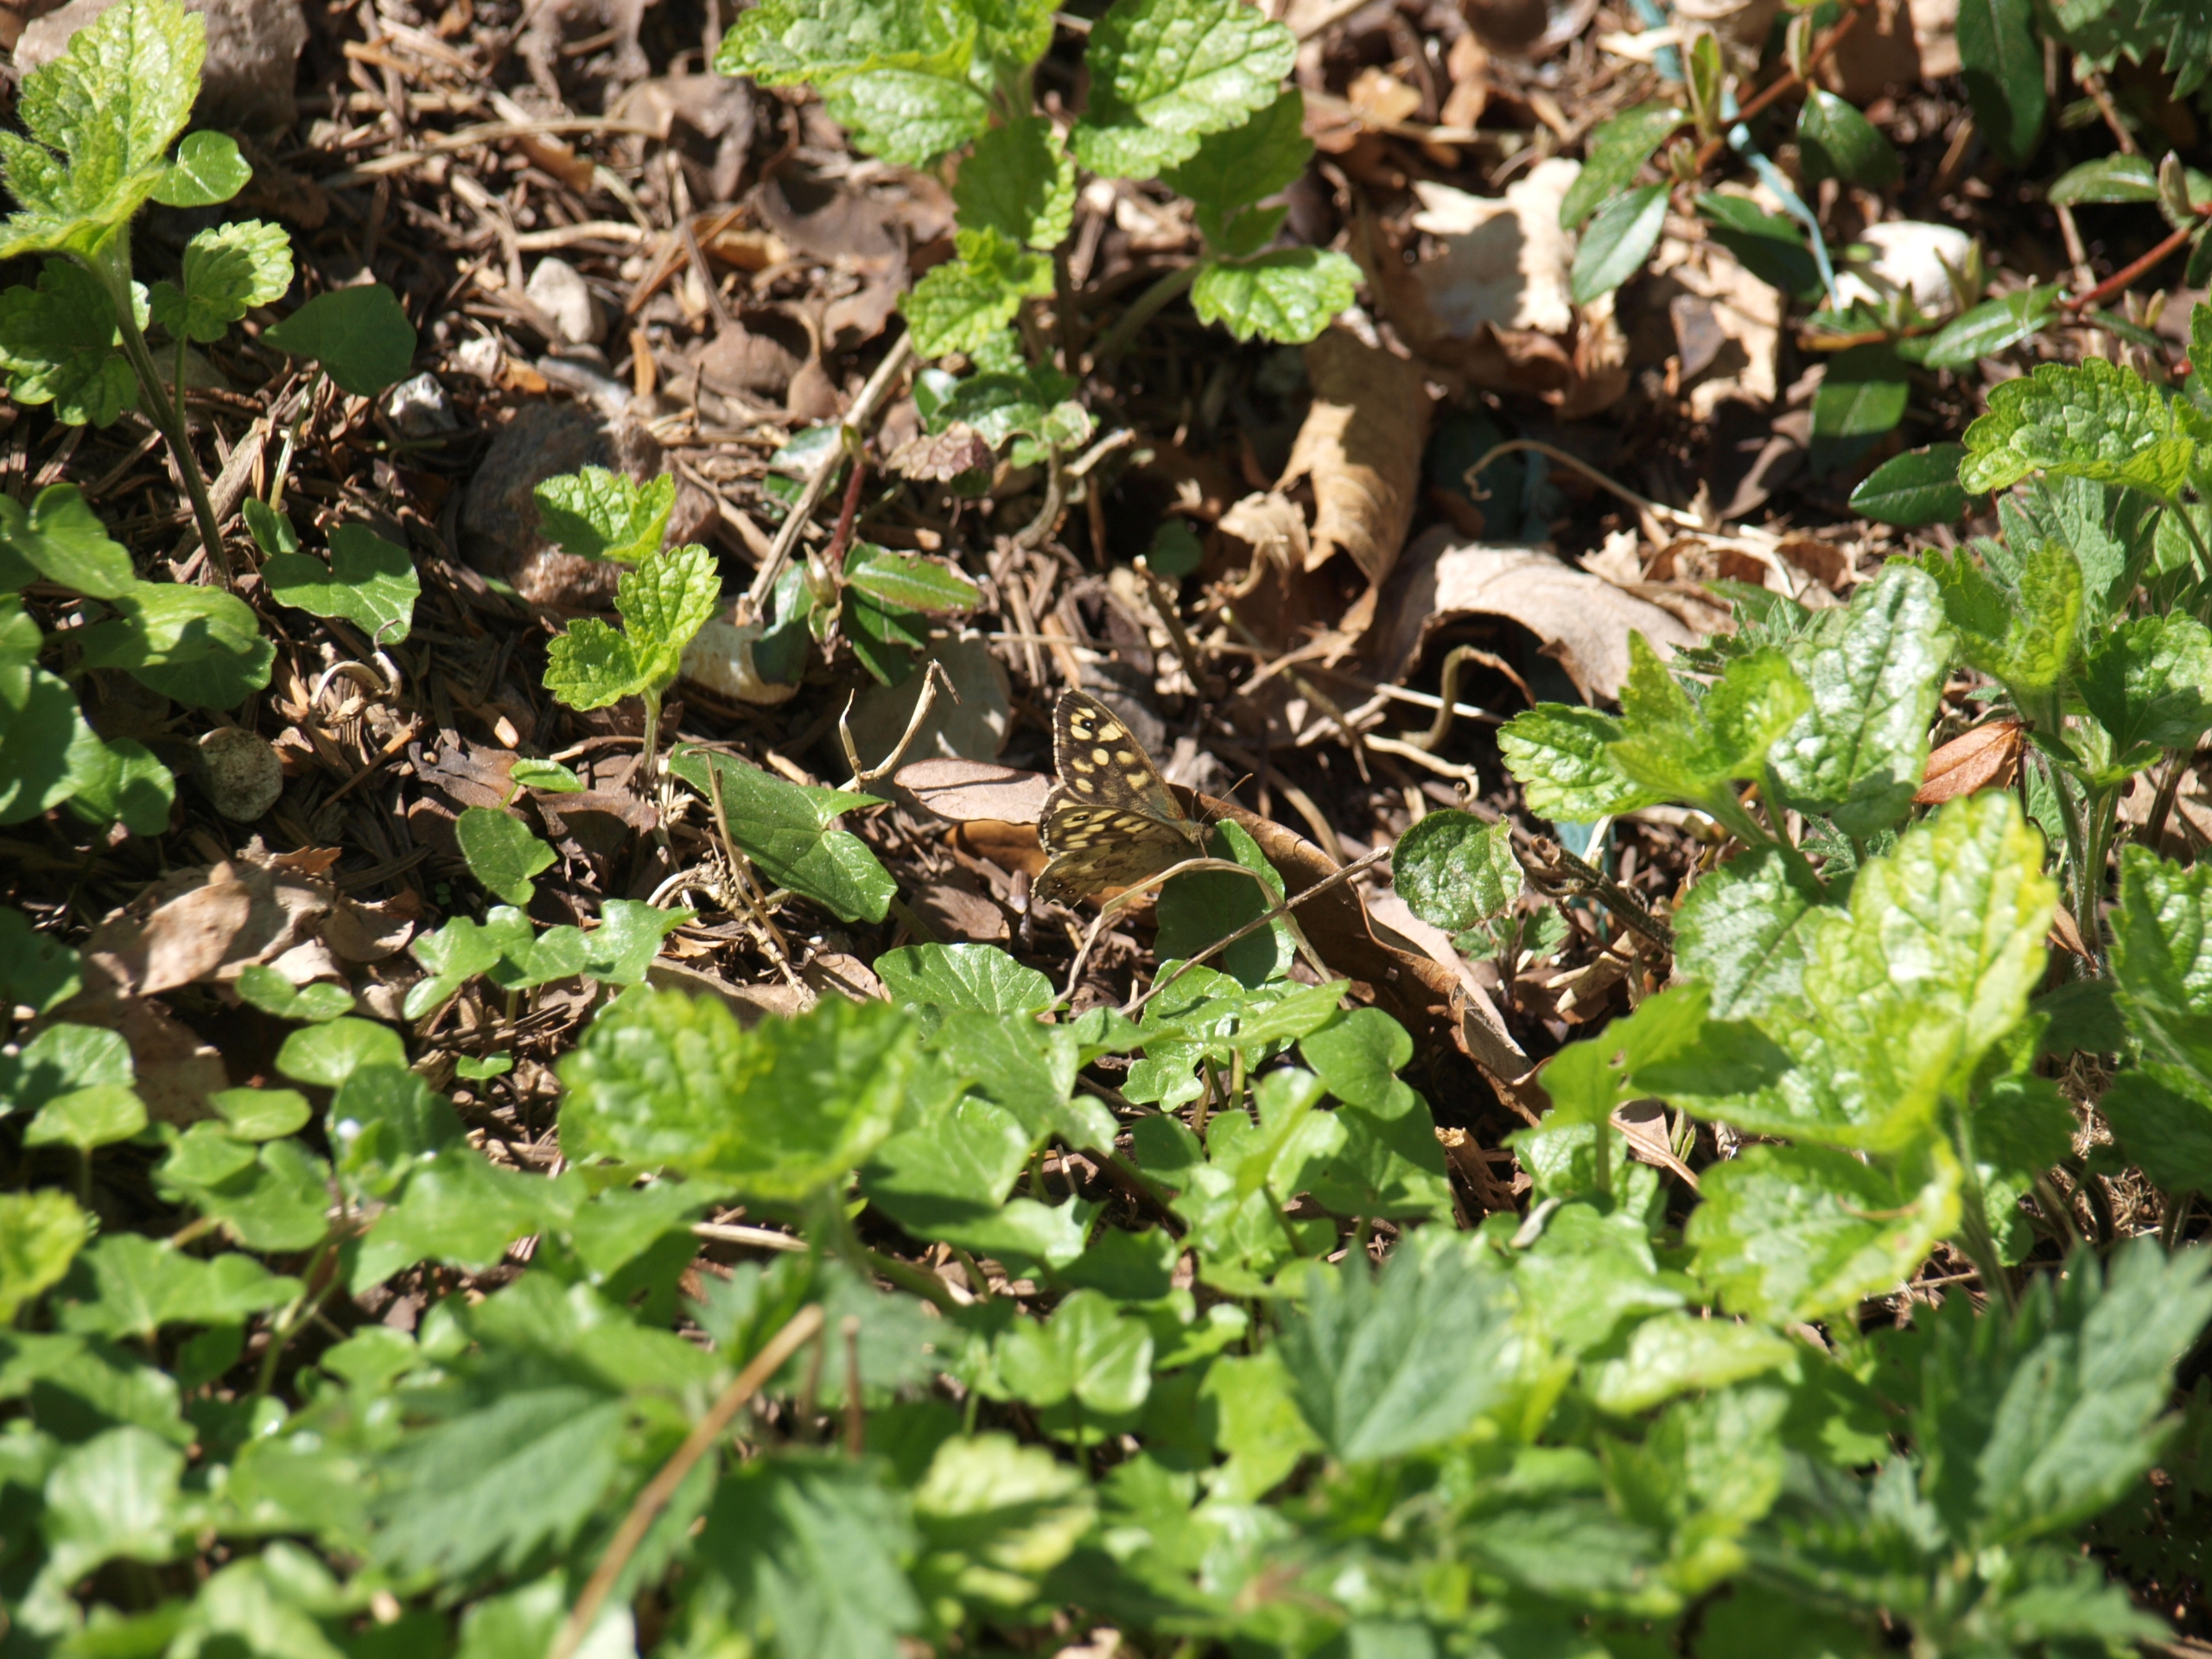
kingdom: Animalia
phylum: Arthropoda
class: Insecta
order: Lepidoptera
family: Nymphalidae
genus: Pararge
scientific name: Pararge aegeria
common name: Skovrandøje
